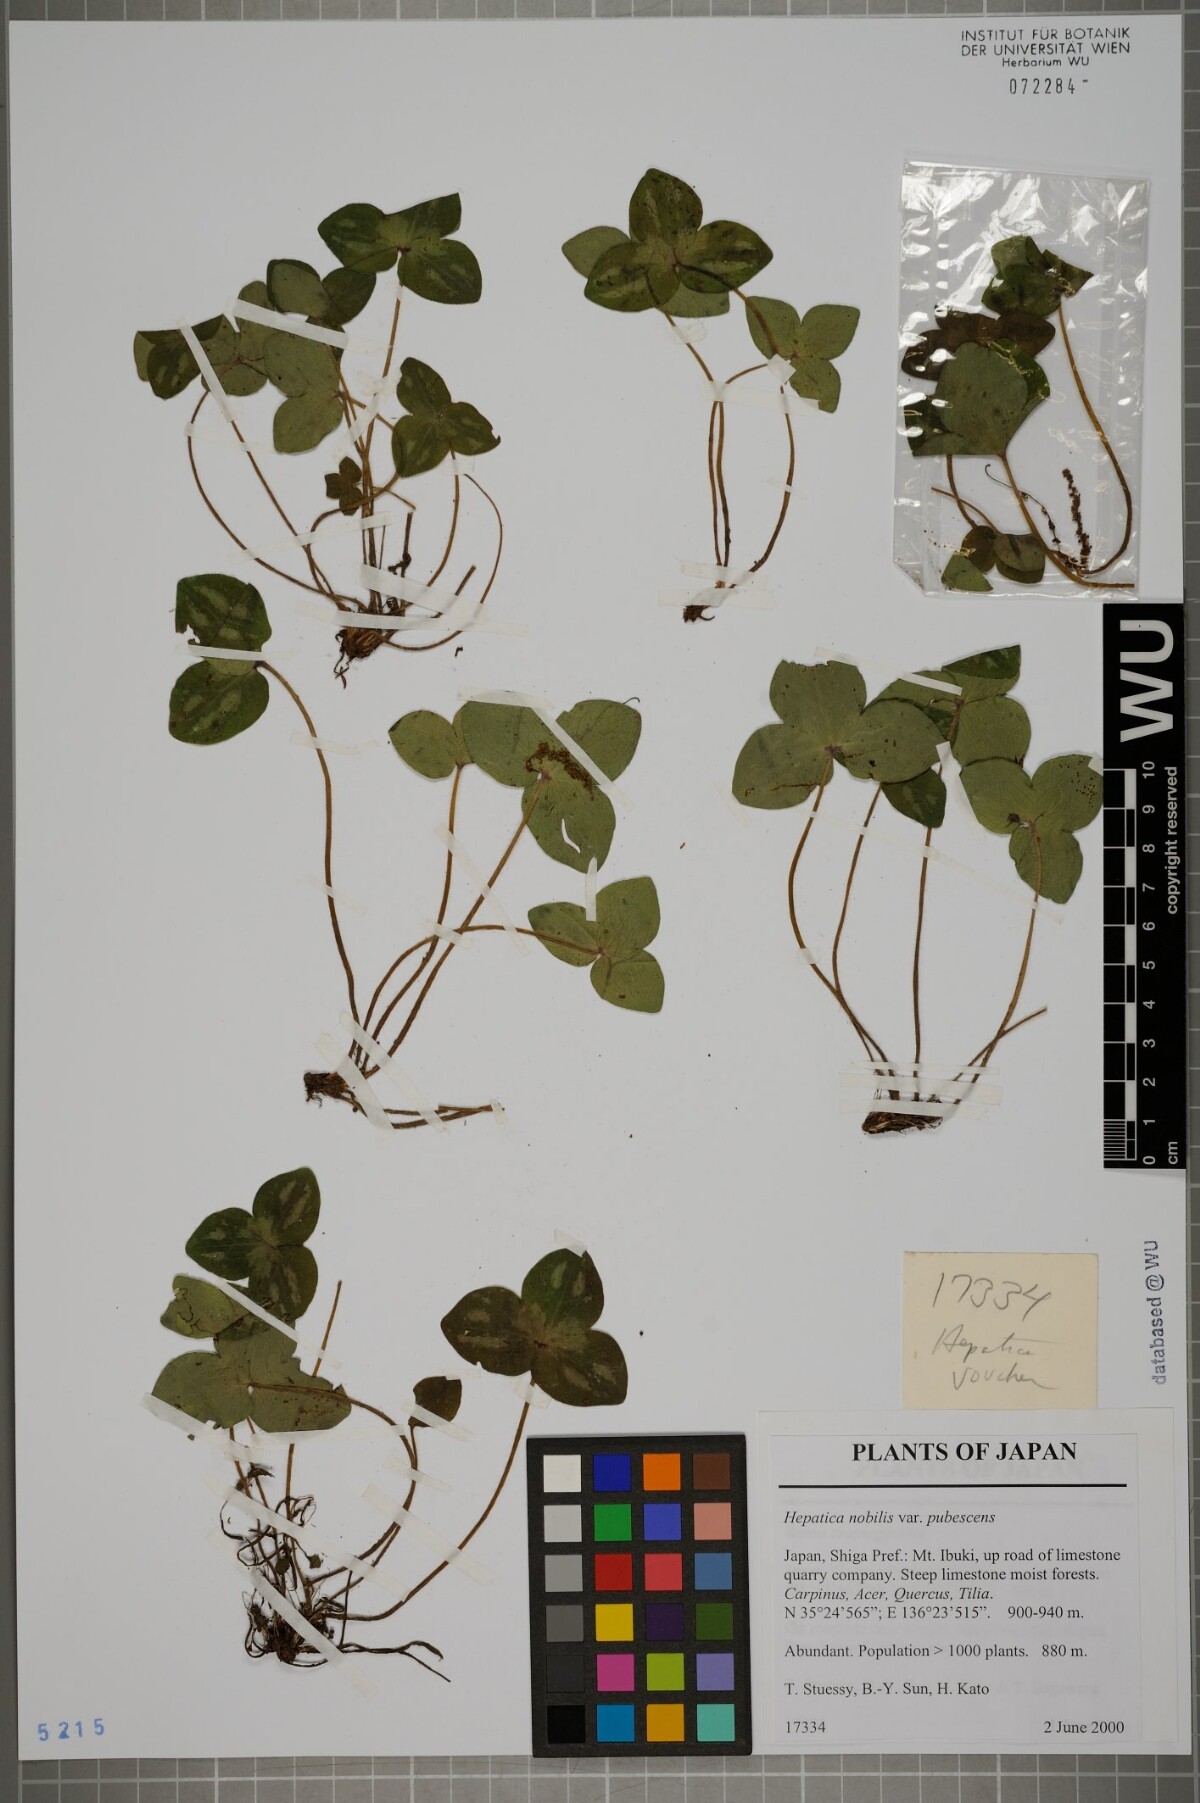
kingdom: Plantae
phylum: Tracheophyta
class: Magnoliopsida
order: Ranunculales
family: Ranunculaceae
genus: Hepatica
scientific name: Hepatica nobilis
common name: Liverleaf
